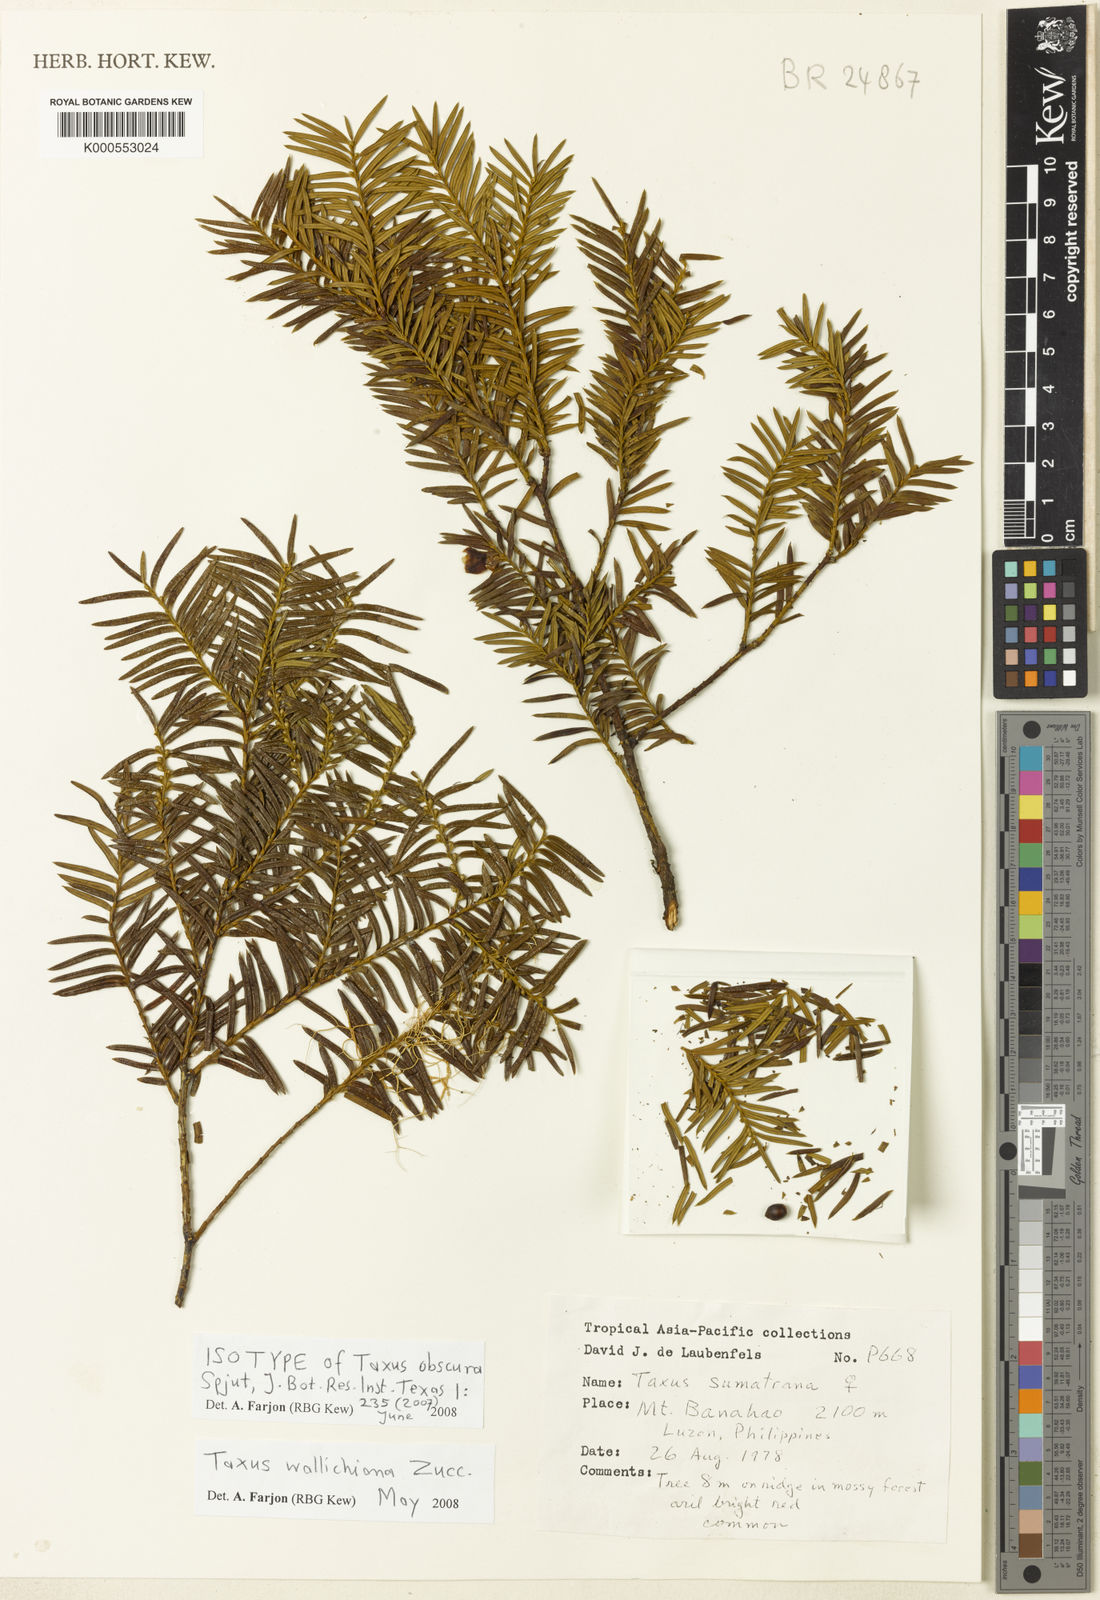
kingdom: Plantae
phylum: Tracheophyta
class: Pinopsida
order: Pinales
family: Taxaceae
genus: Taxus
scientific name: Taxus wallichiana
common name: Himalayan yew
